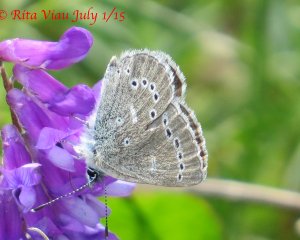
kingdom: Animalia
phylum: Arthropoda
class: Insecta
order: Lepidoptera
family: Lycaenidae
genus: Glaucopsyche
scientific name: Glaucopsyche lygdamus
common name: Silvery Blue
